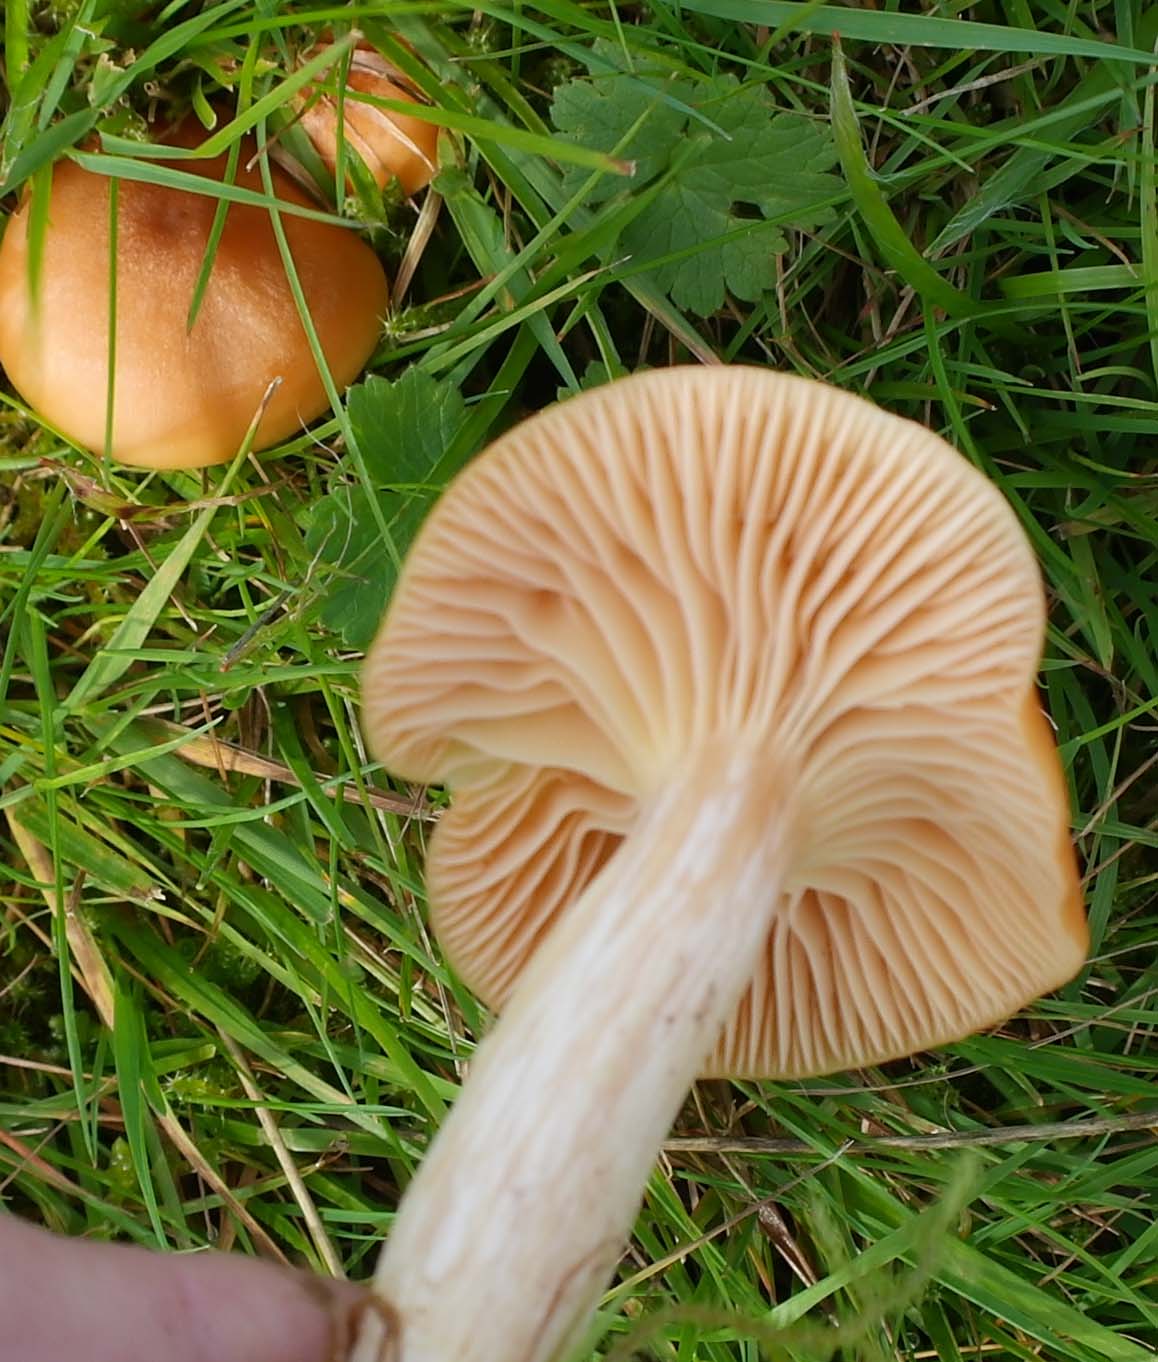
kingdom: Fungi
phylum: Basidiomycota
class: Agaricomycetes
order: Agaricales
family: Hygrophoraceae
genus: Cuphophyllus
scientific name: Cuphophyllus pratensis
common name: eng-vokshat
